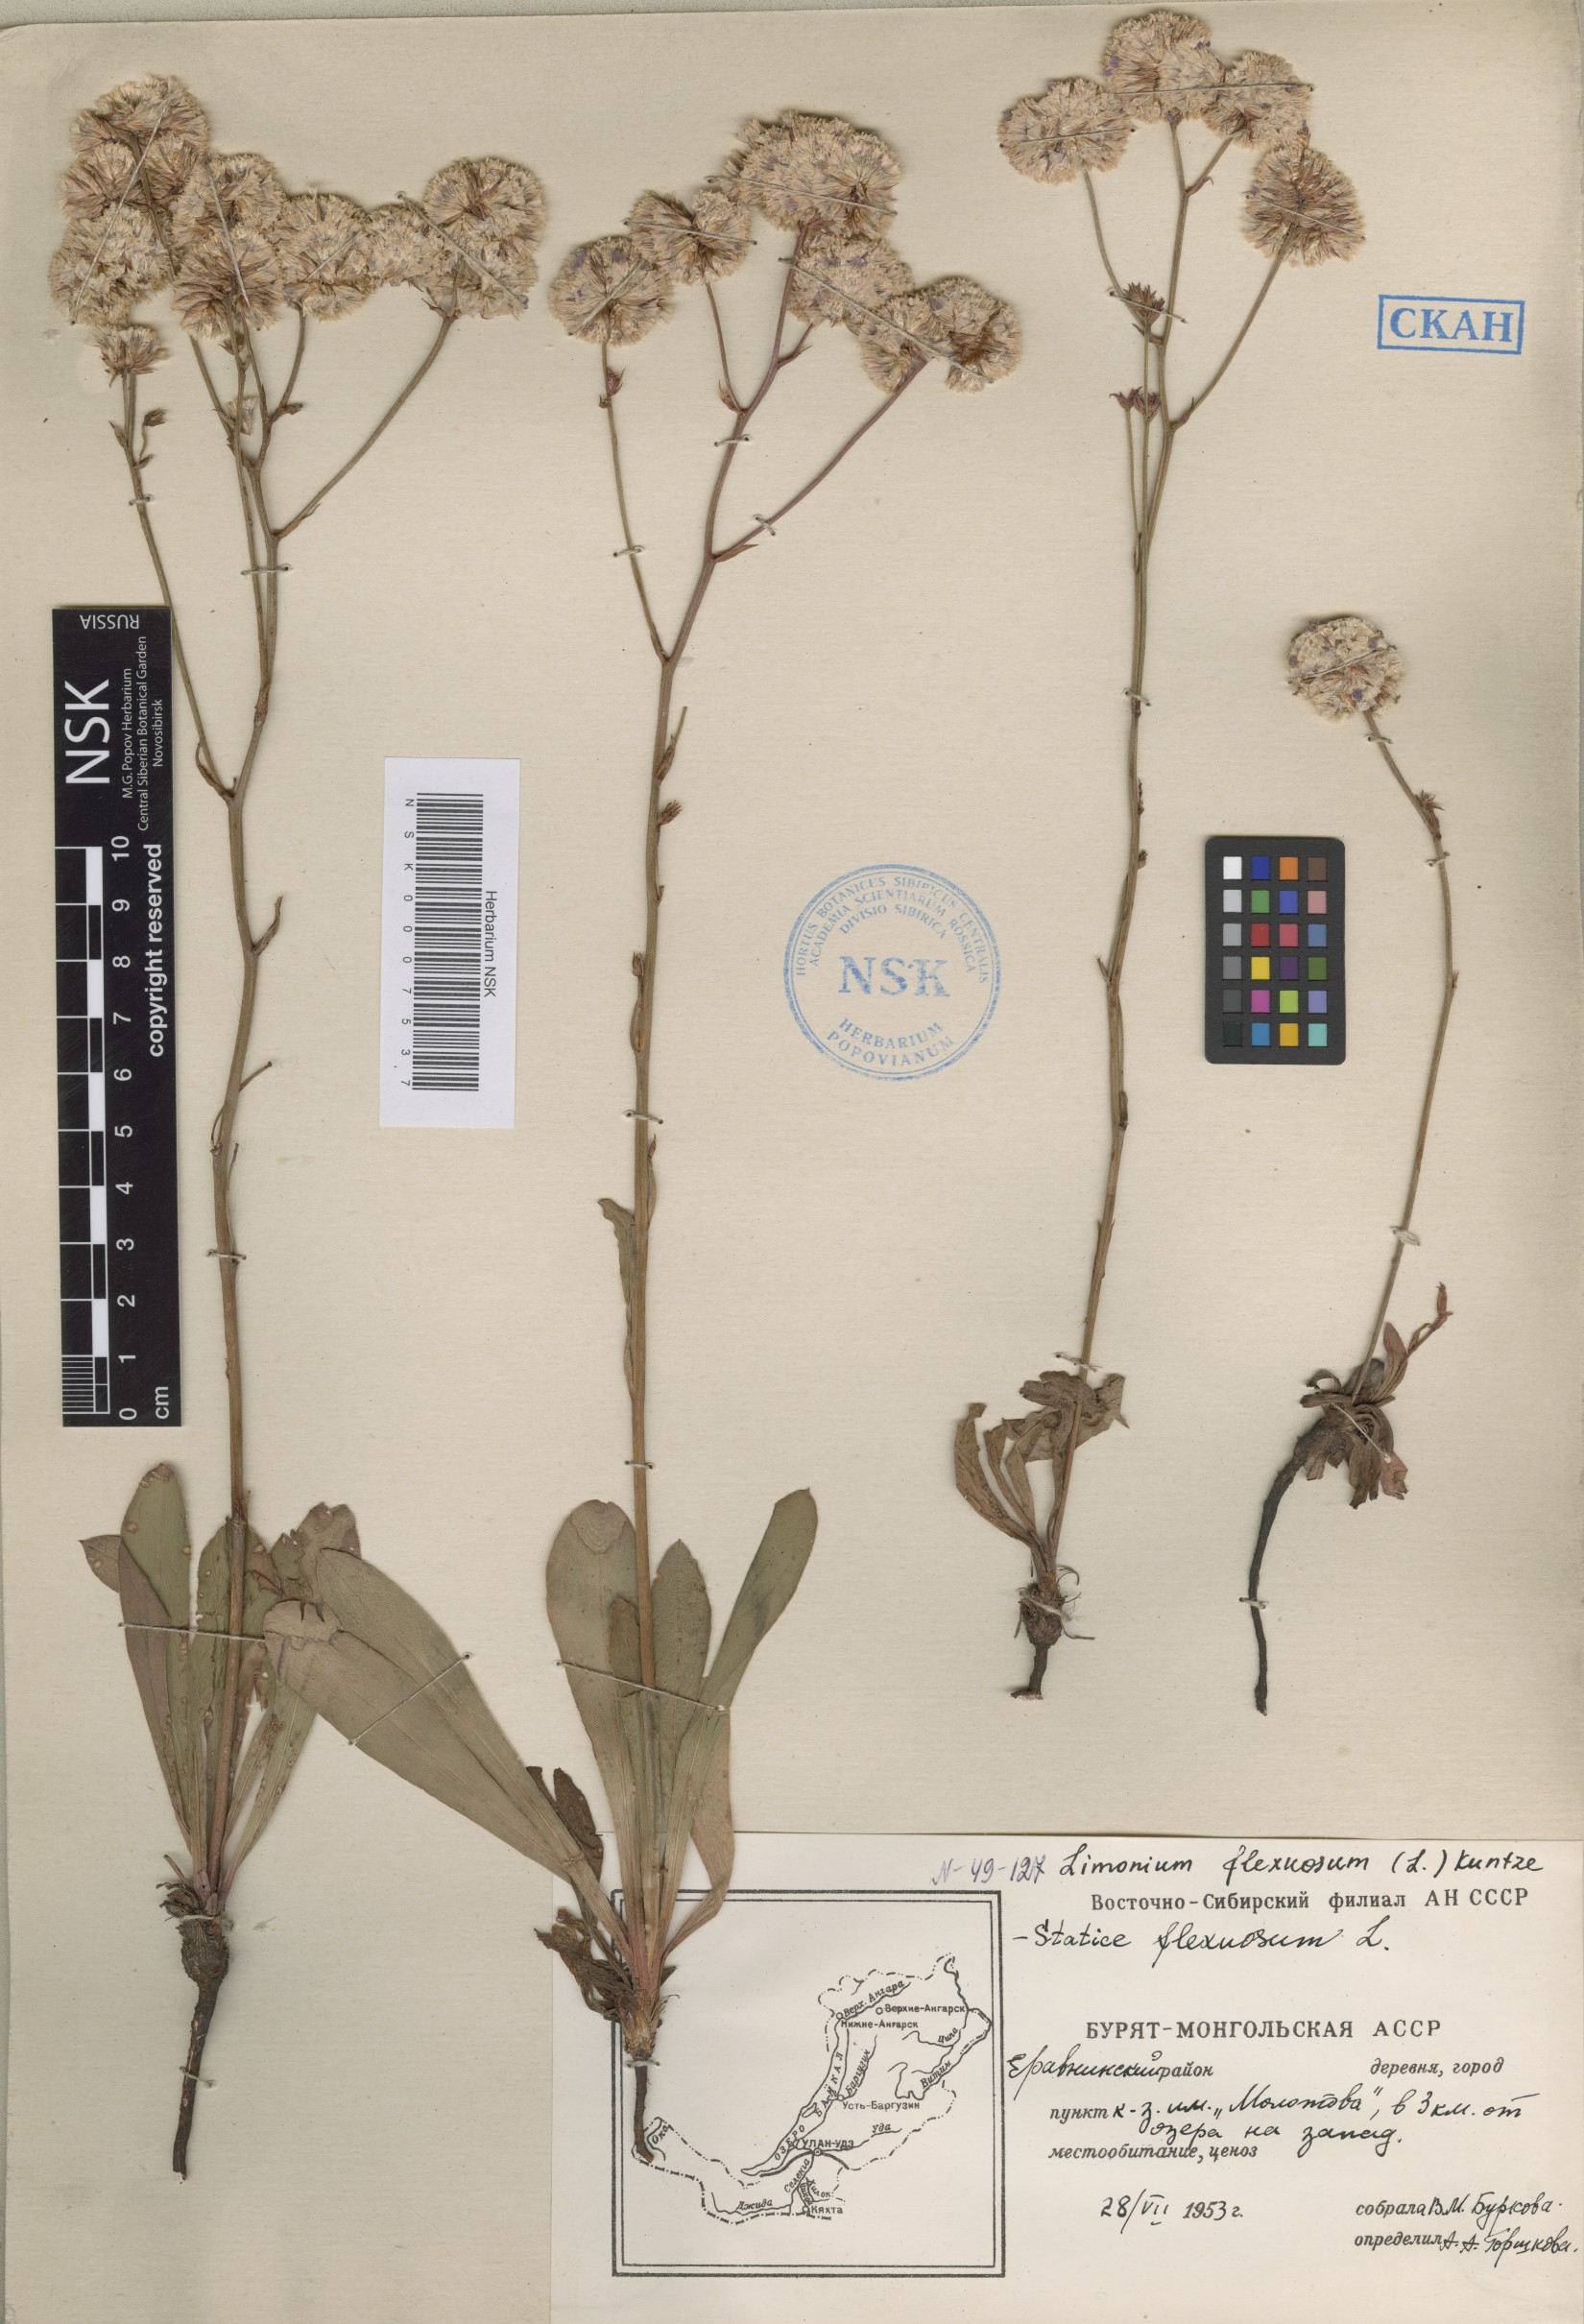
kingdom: Plantae
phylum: Tracheophyta
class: Magnoliopsida
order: Caryophyllales
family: Plumbaginaceae
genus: Limonium
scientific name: Limonium flexuosum
